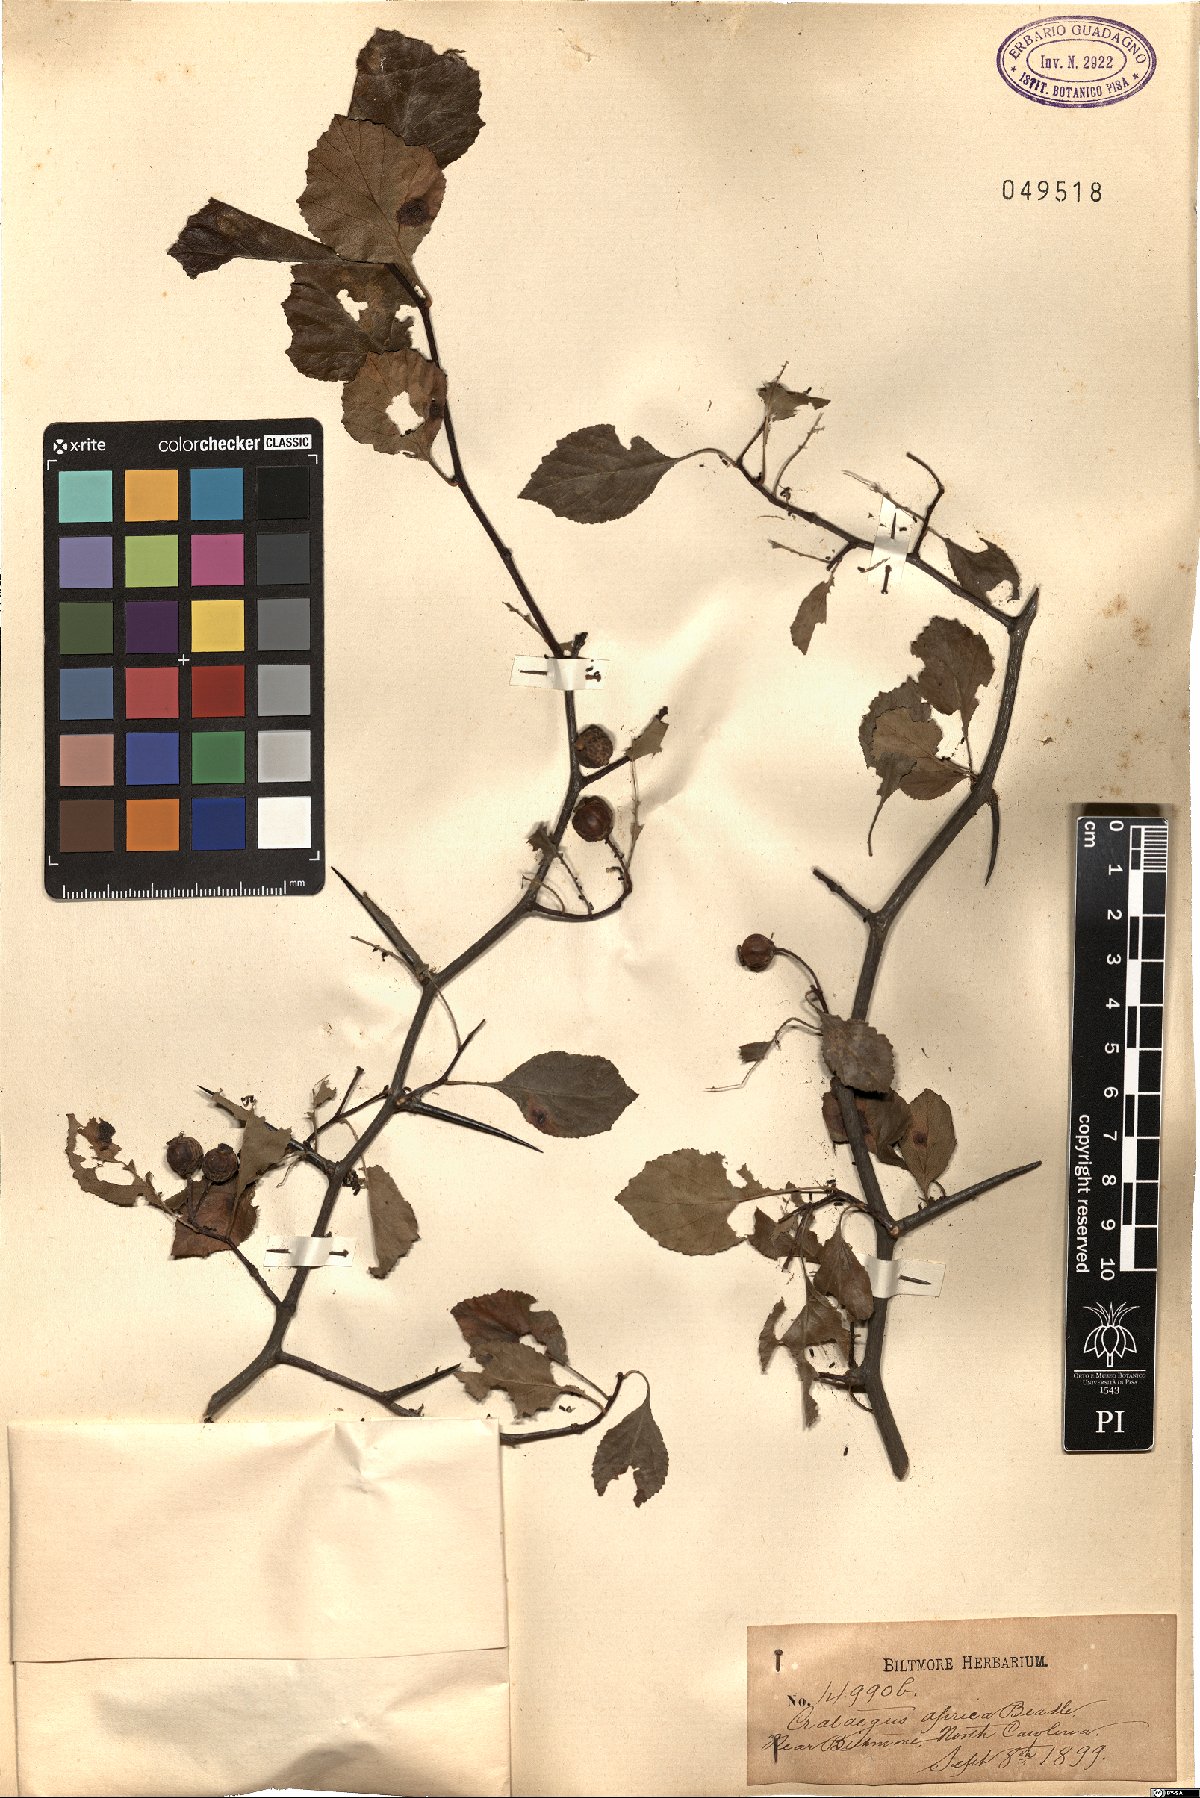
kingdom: Plantae
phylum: Tracheophyta
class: Magnoliopsida
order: Rosales
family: Rosaceae
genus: Crataegus
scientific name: Crataegus aprica
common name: Sunny hawthorn
